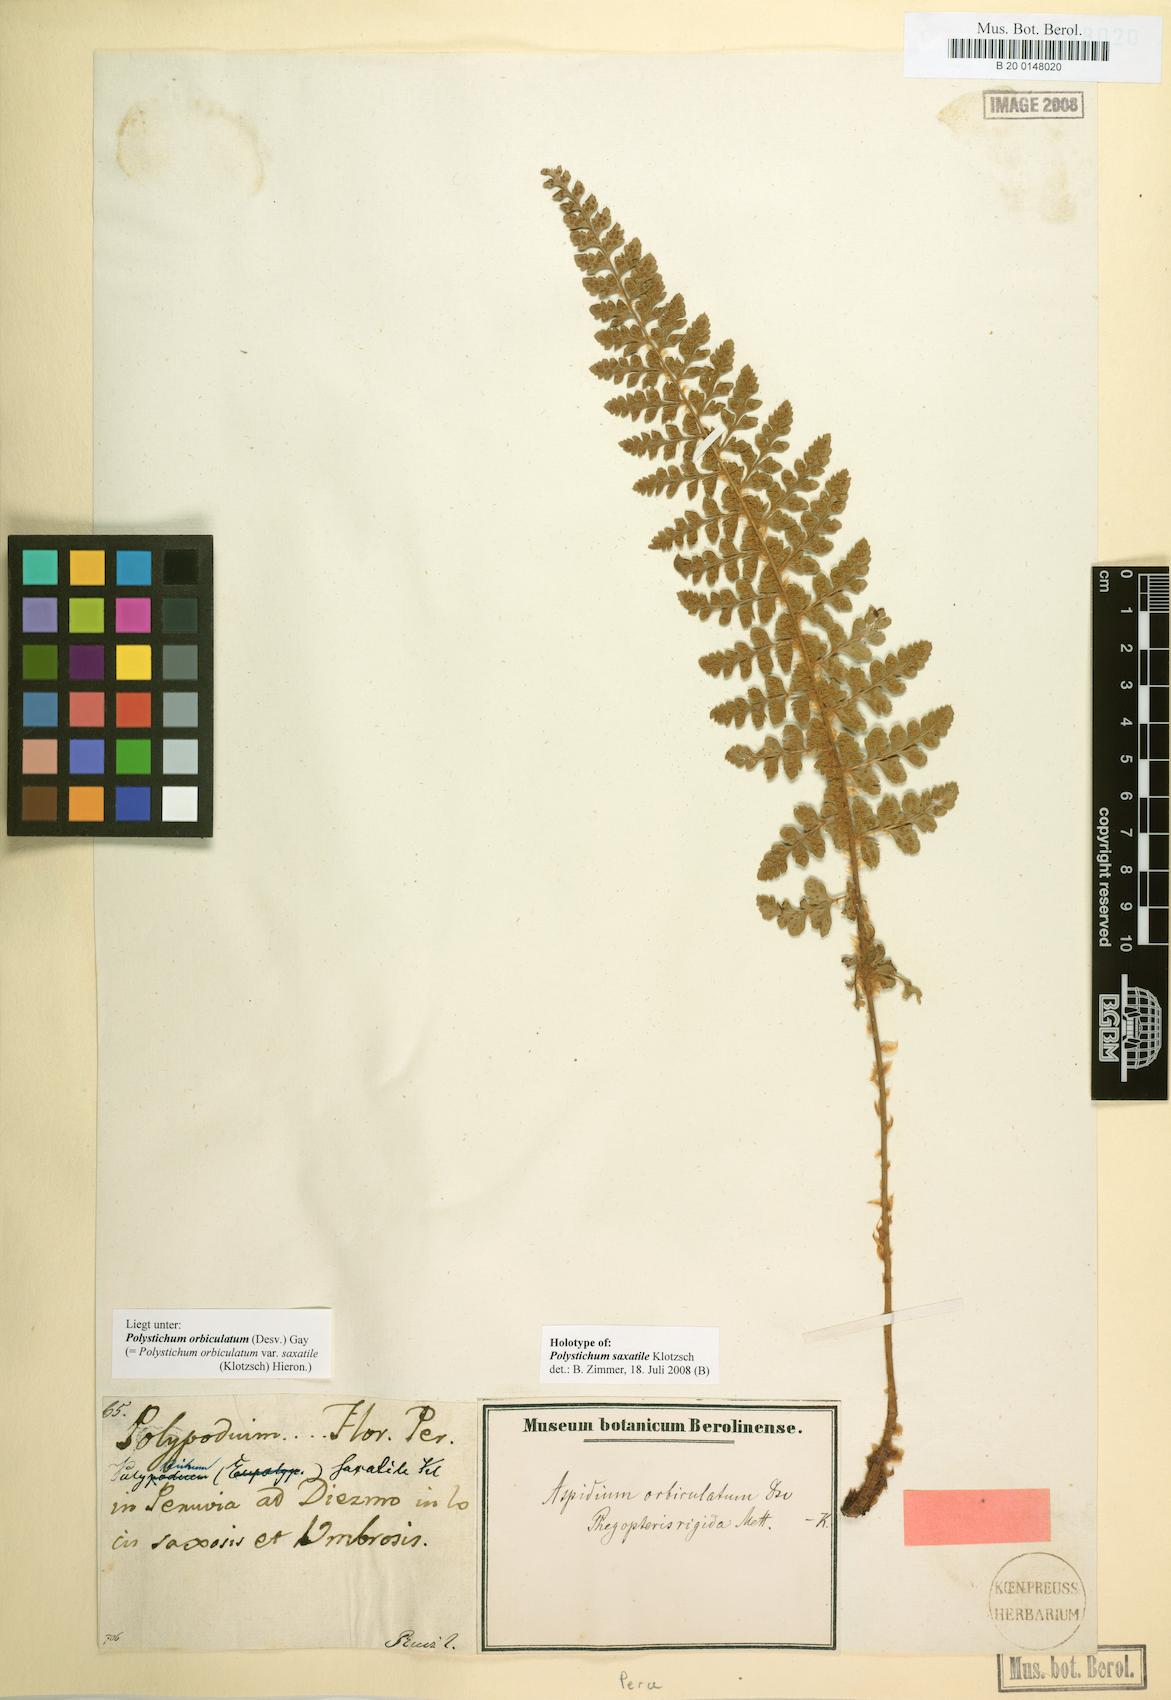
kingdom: Plantae
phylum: Tracheophyta
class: Polypodiopsida
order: Polypodiales
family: Dryopteridaceae
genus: Polystichum
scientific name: Polystichum orbiculatum
